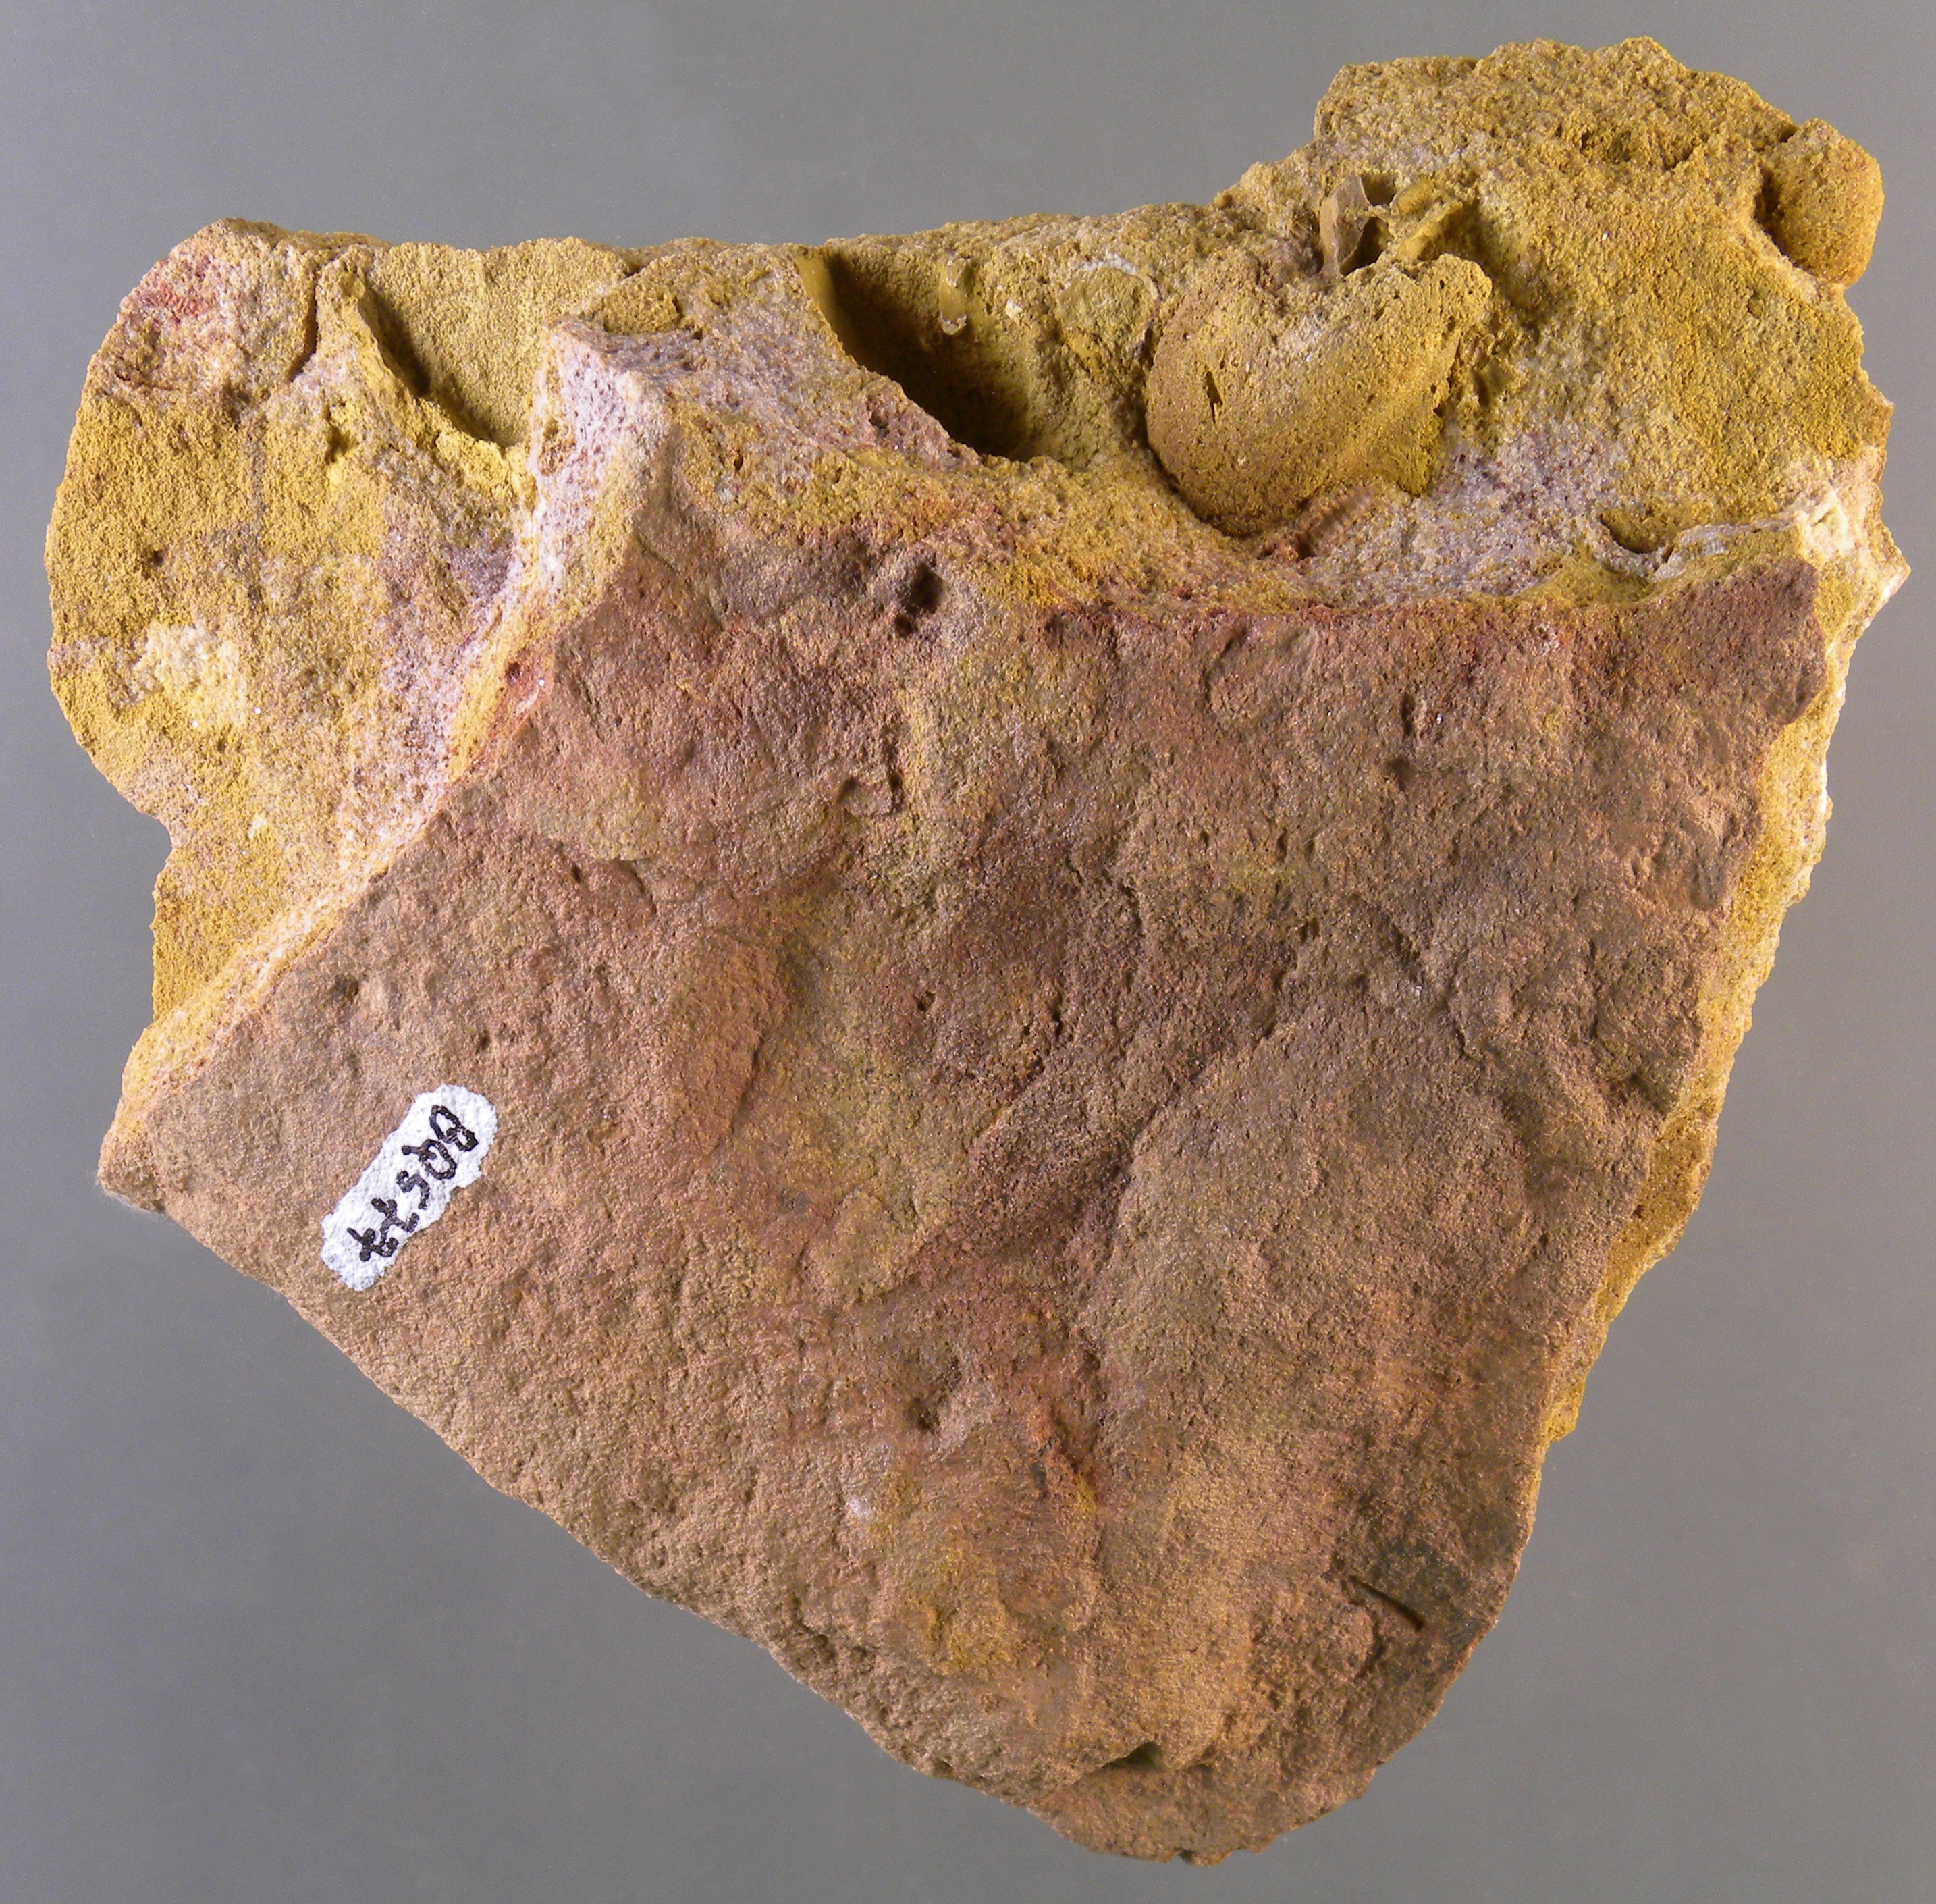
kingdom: Animalia
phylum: Mollusca
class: Bivalvia
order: Nuculanida
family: Malletiidae
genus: Palaeoneilo
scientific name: Palaeoneilo
